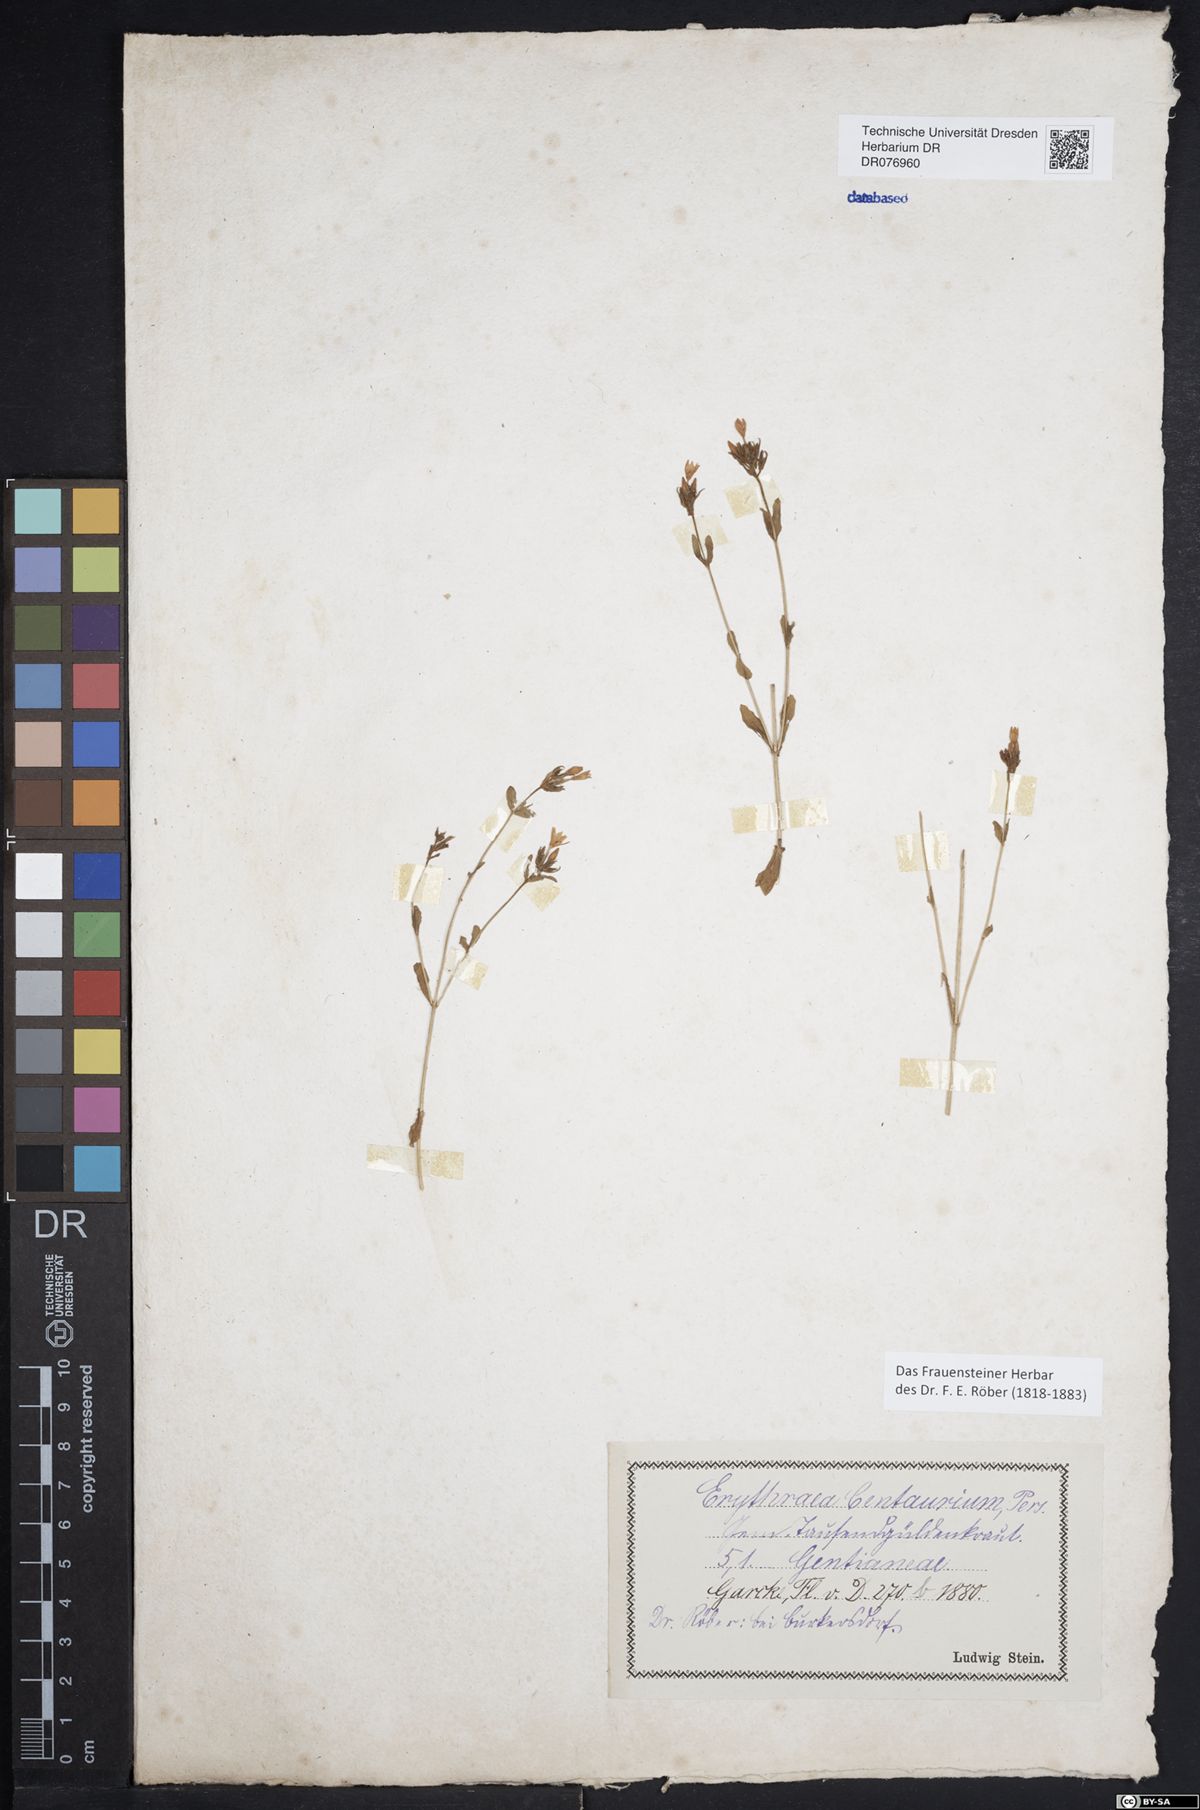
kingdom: Plantae
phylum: Tracheophyta
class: Magnoliopsida
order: Gentianales
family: Gentianaceae
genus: Centaurium
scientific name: Centaurium erythraea
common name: Common centaury
